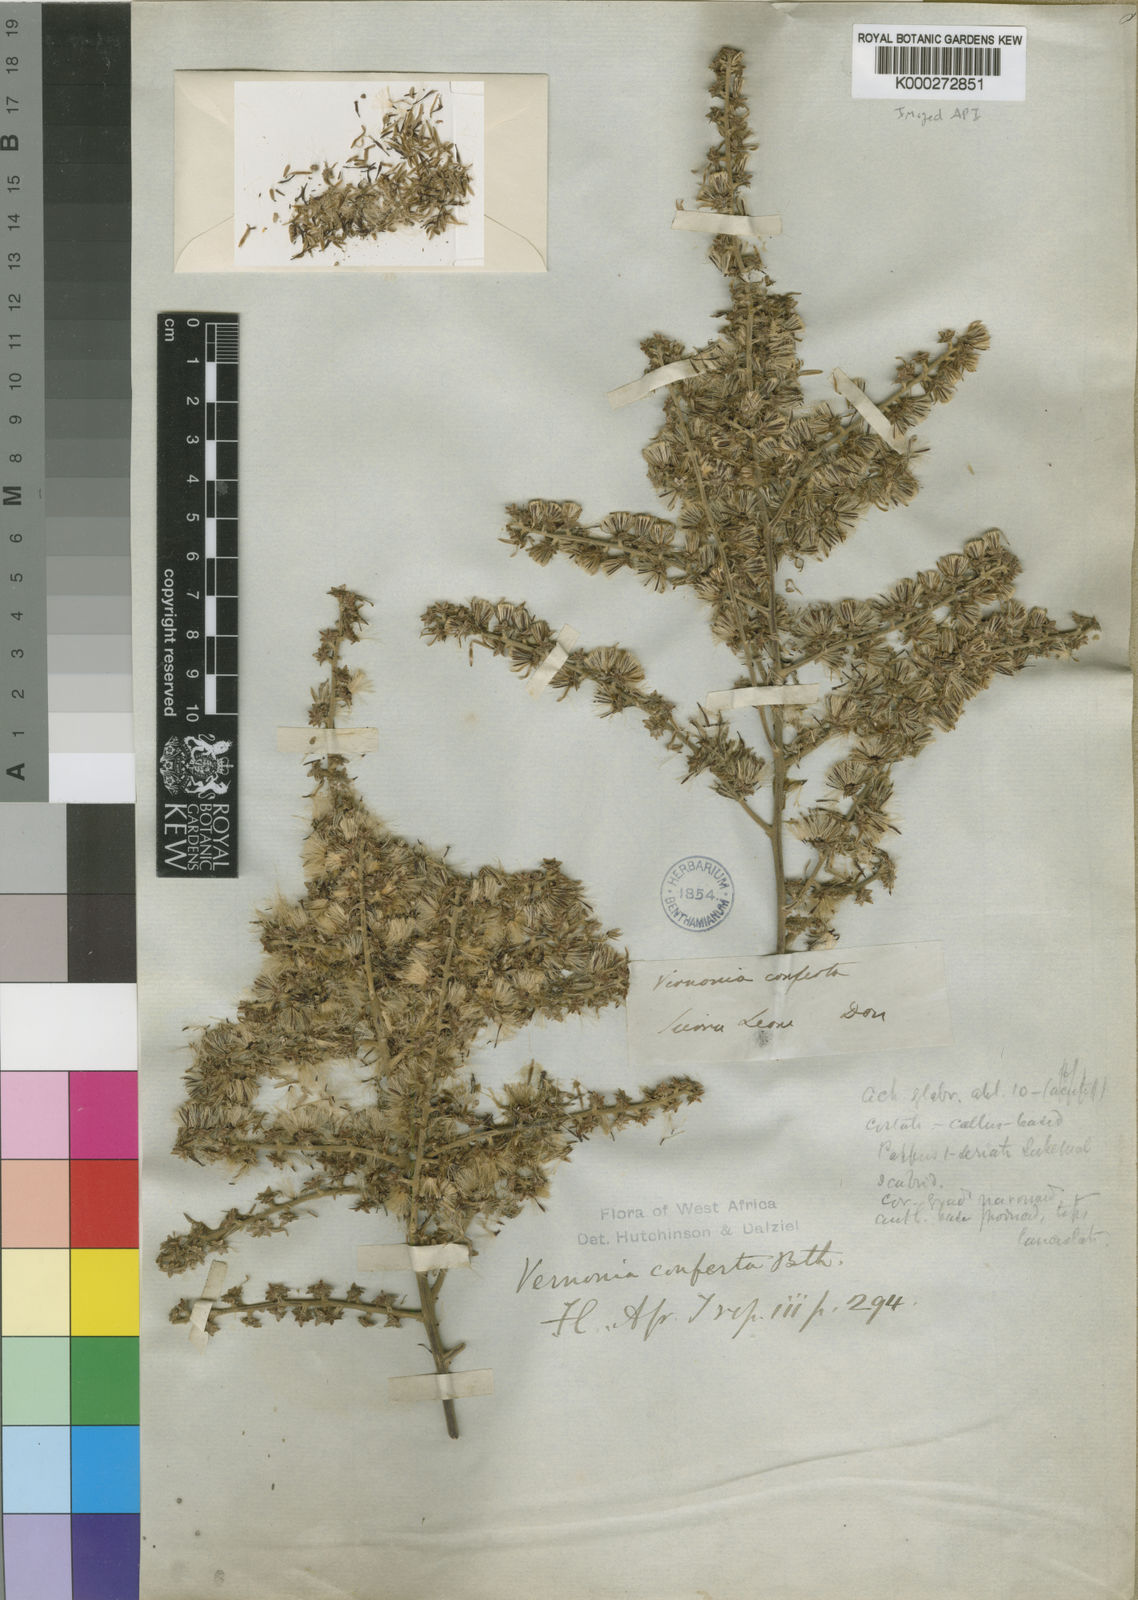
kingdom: Plantae
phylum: Tracheophyta
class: Magnoliopsida
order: Asterales
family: Asteraceae
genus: Monosis
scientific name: Monosis conferta
